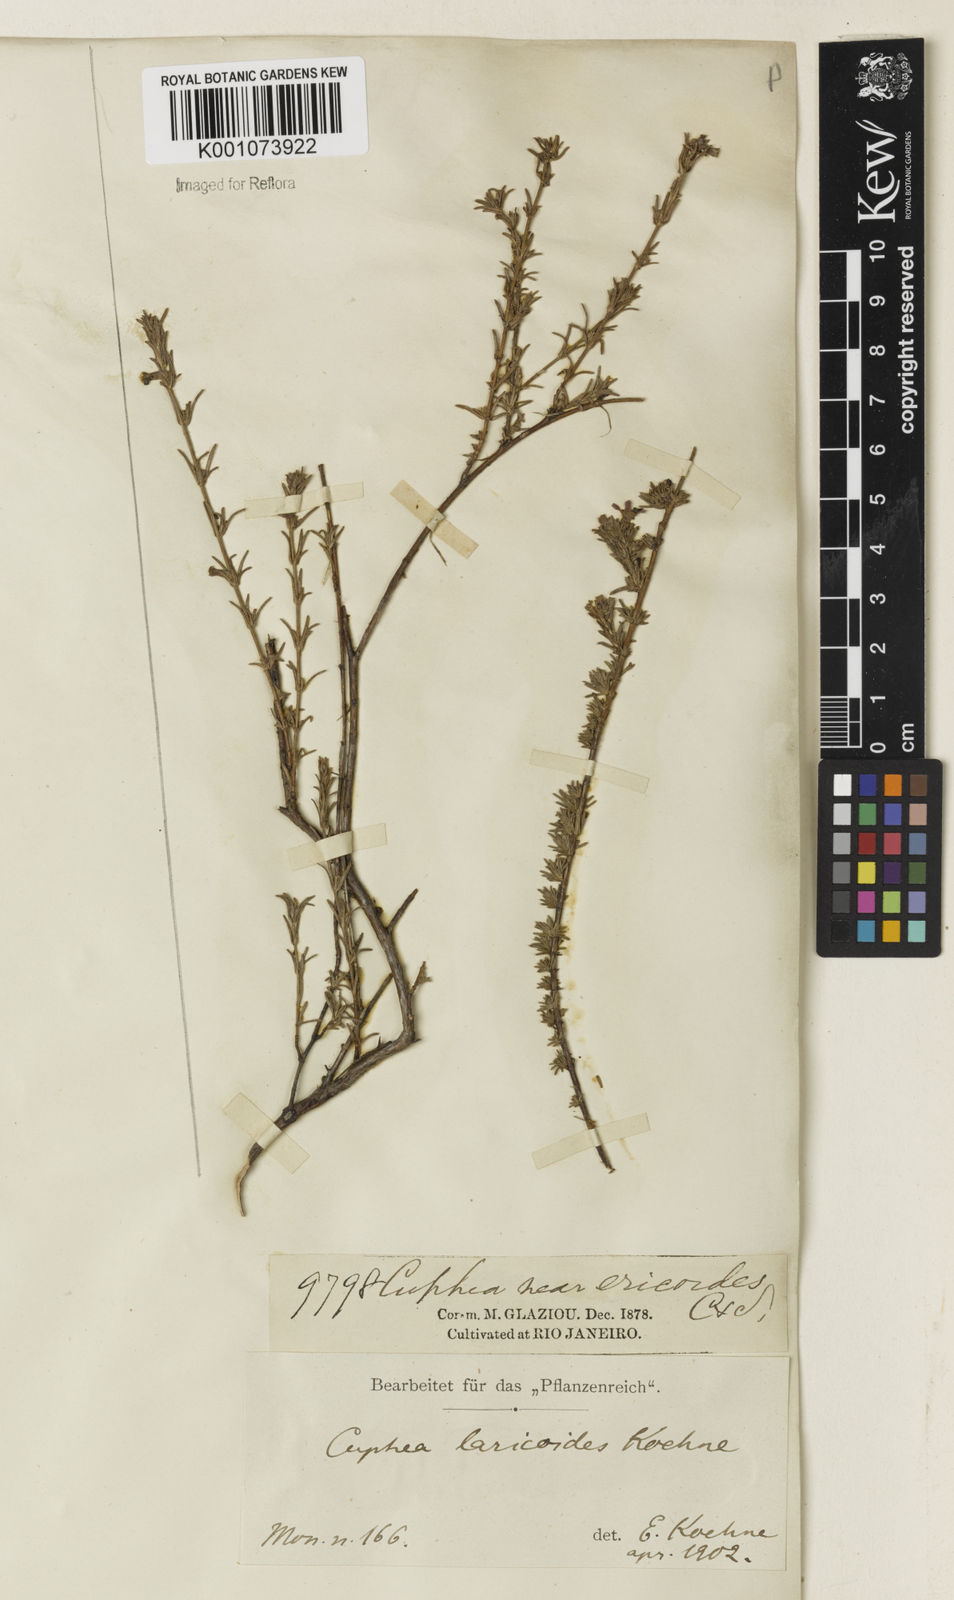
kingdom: Plantae
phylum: Tracheophyta
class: Magnoliopsida
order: Myrtales
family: Lythraceae
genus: Cuphea
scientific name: Cuphea laricoides
